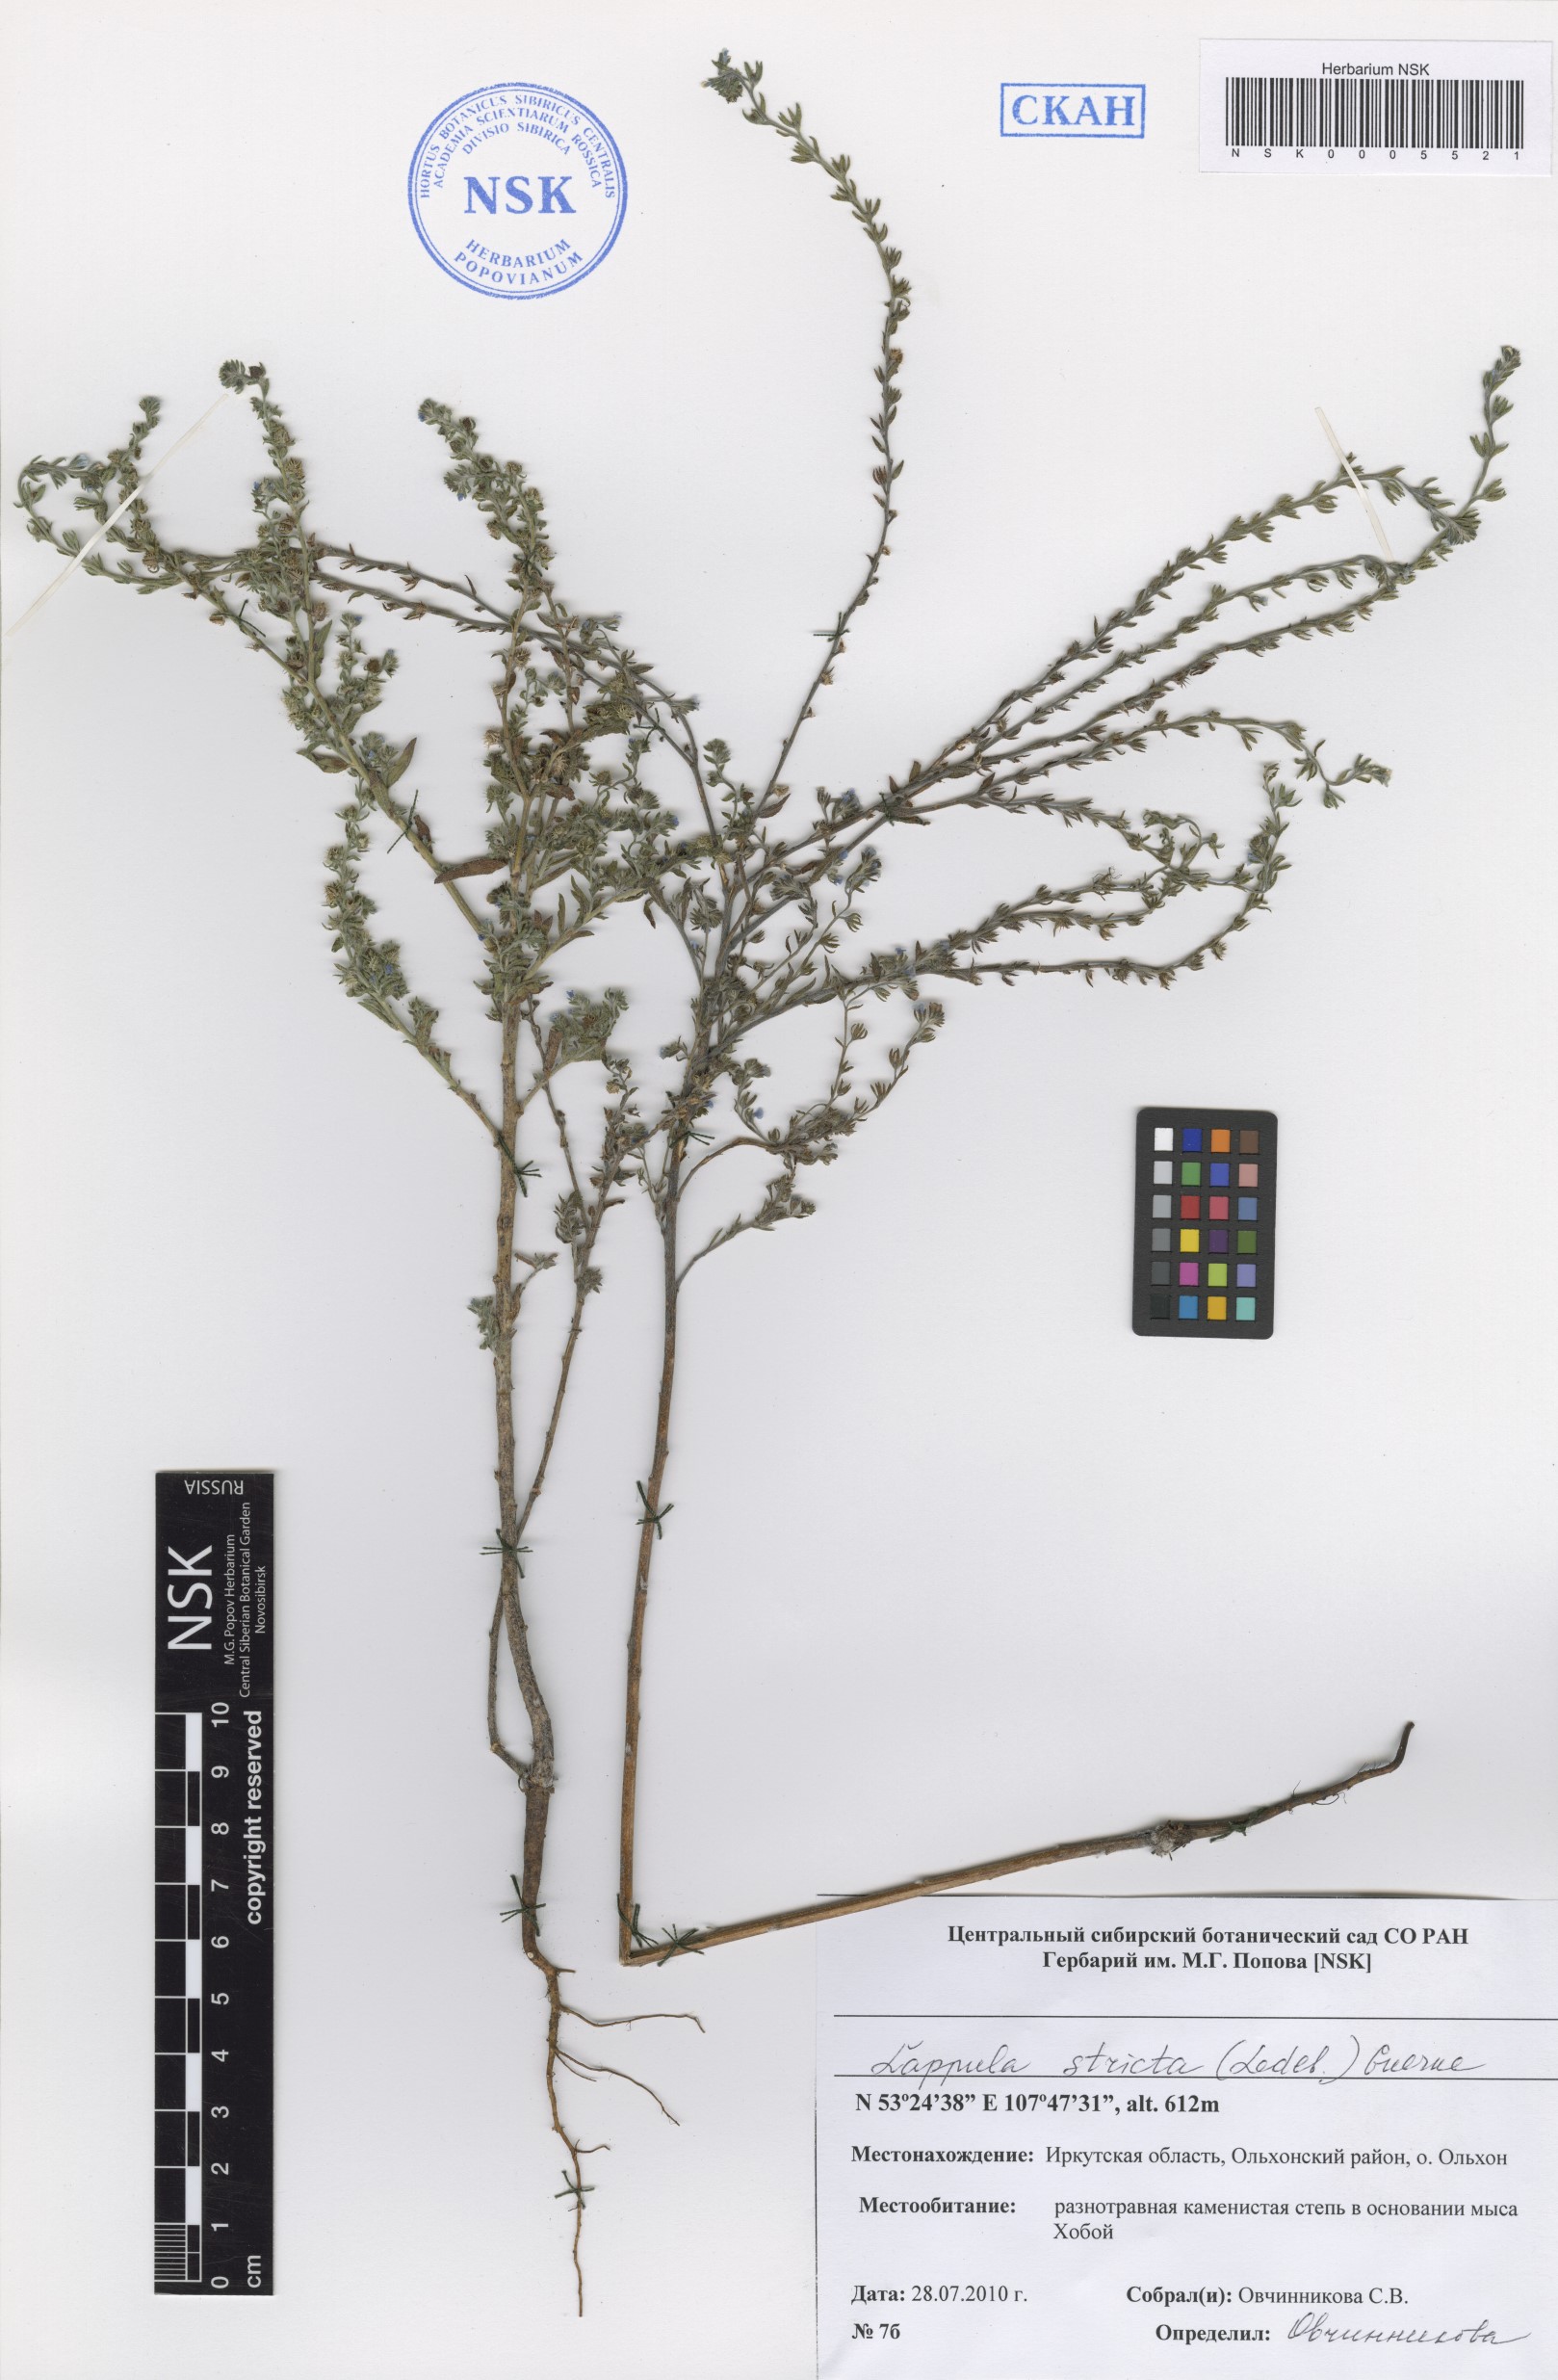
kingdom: Plantae
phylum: Tracheophyta
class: Magnoliopsida
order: Boraginales
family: Boraginaceae
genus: Lappula
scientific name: Lappula stricta
